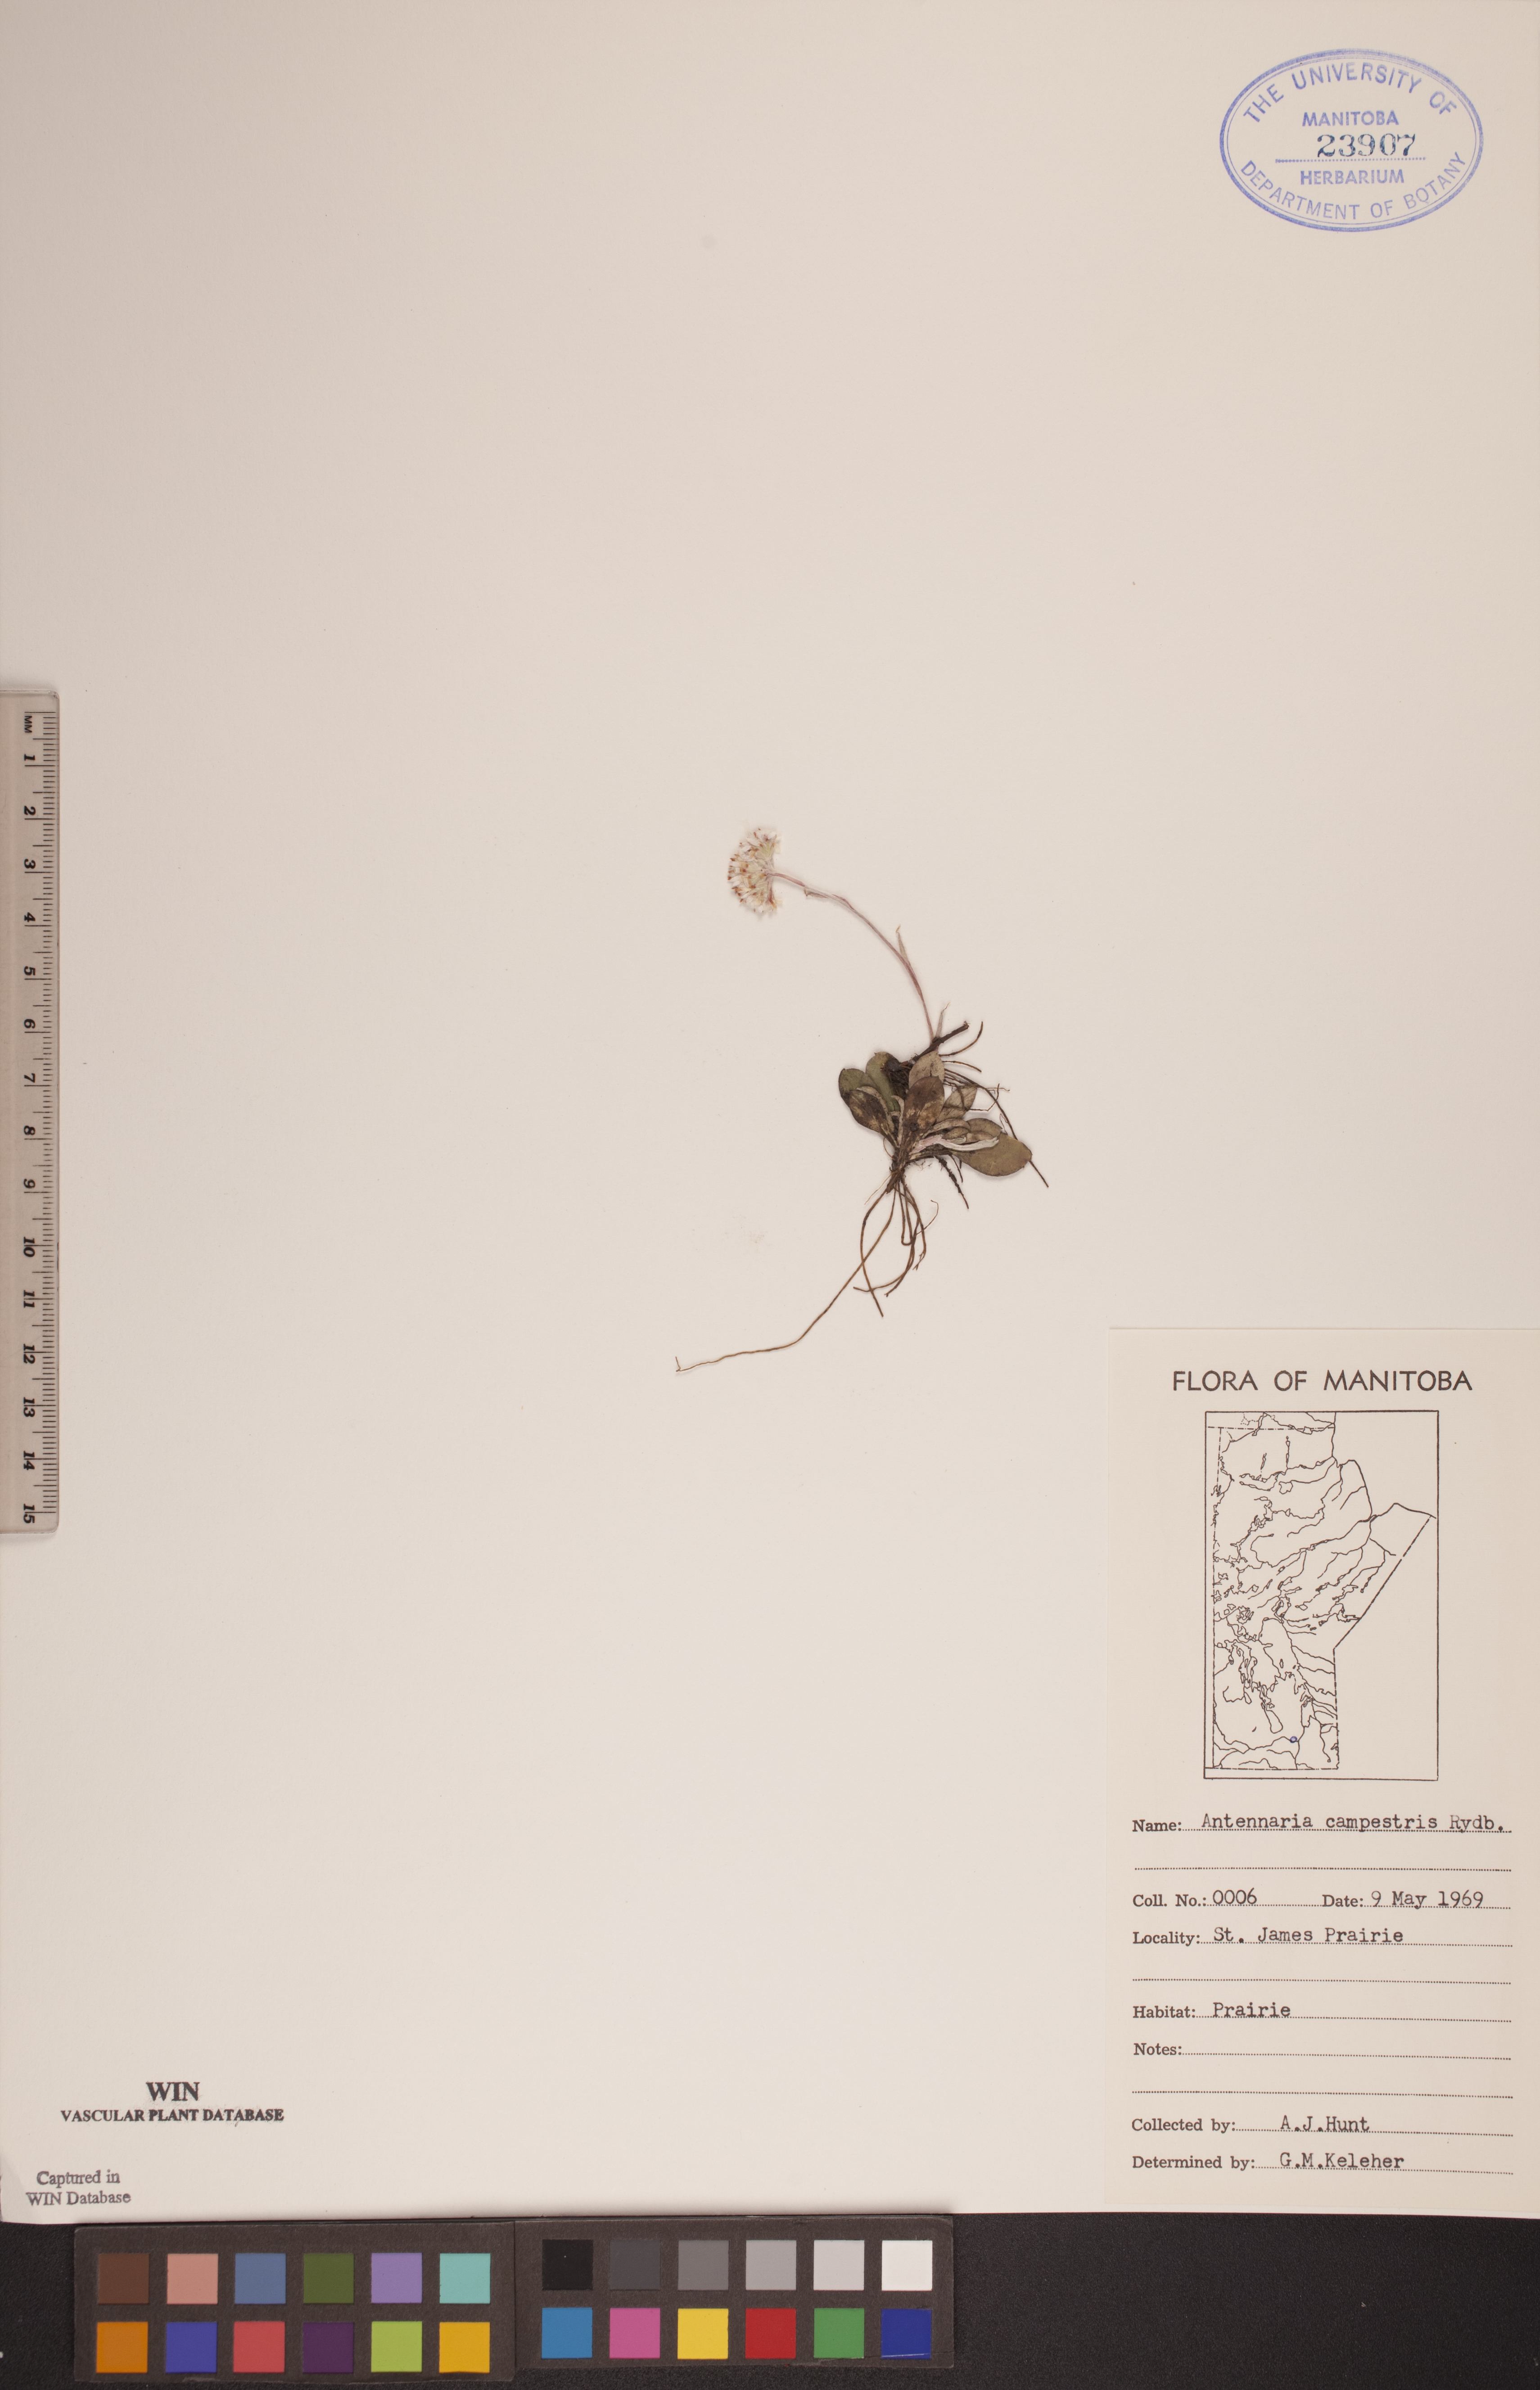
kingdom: Plantae
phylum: Tracheophyta
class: Magnoliopsida
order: Asterales
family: Asteraceae
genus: Antennaria
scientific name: Antennaria neglecta
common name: Field pussytoes
